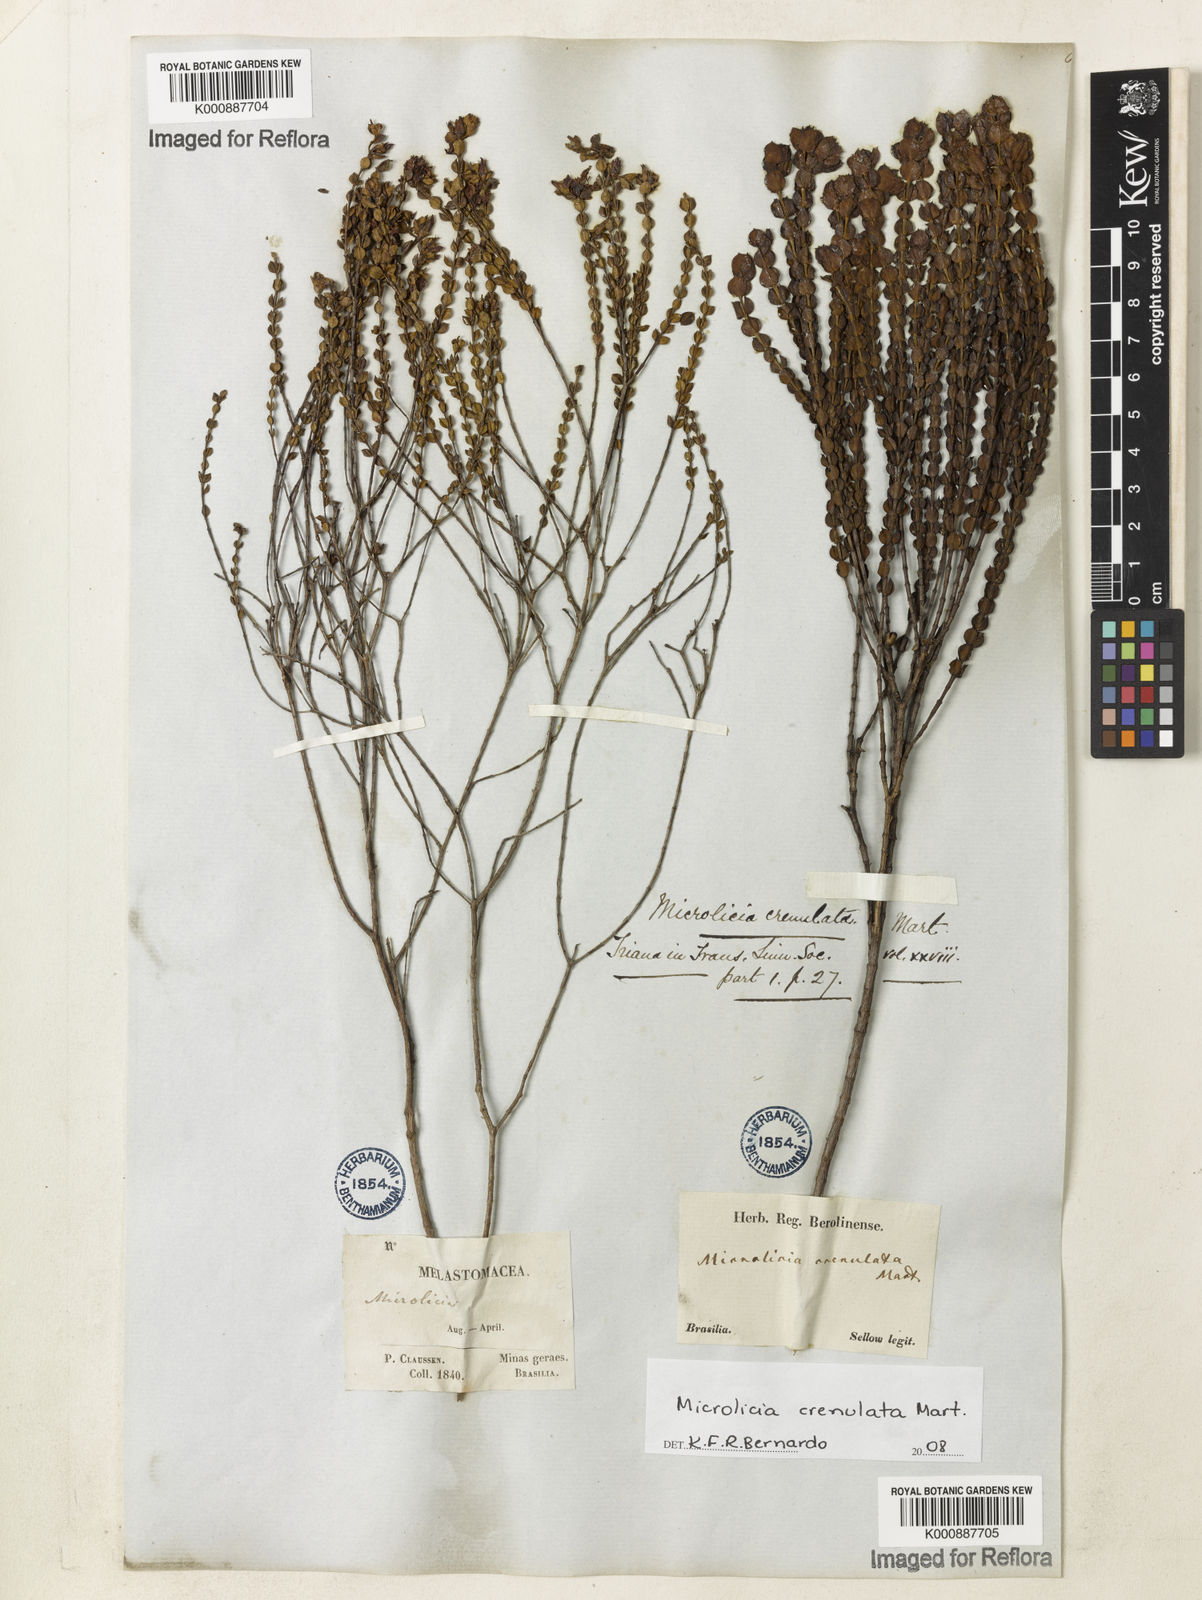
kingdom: Plantae
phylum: Tracheophyta
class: Magnoliopsida
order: Myrtales
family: Melastomataceae
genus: Microlicia
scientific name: Microlicia crenulata
